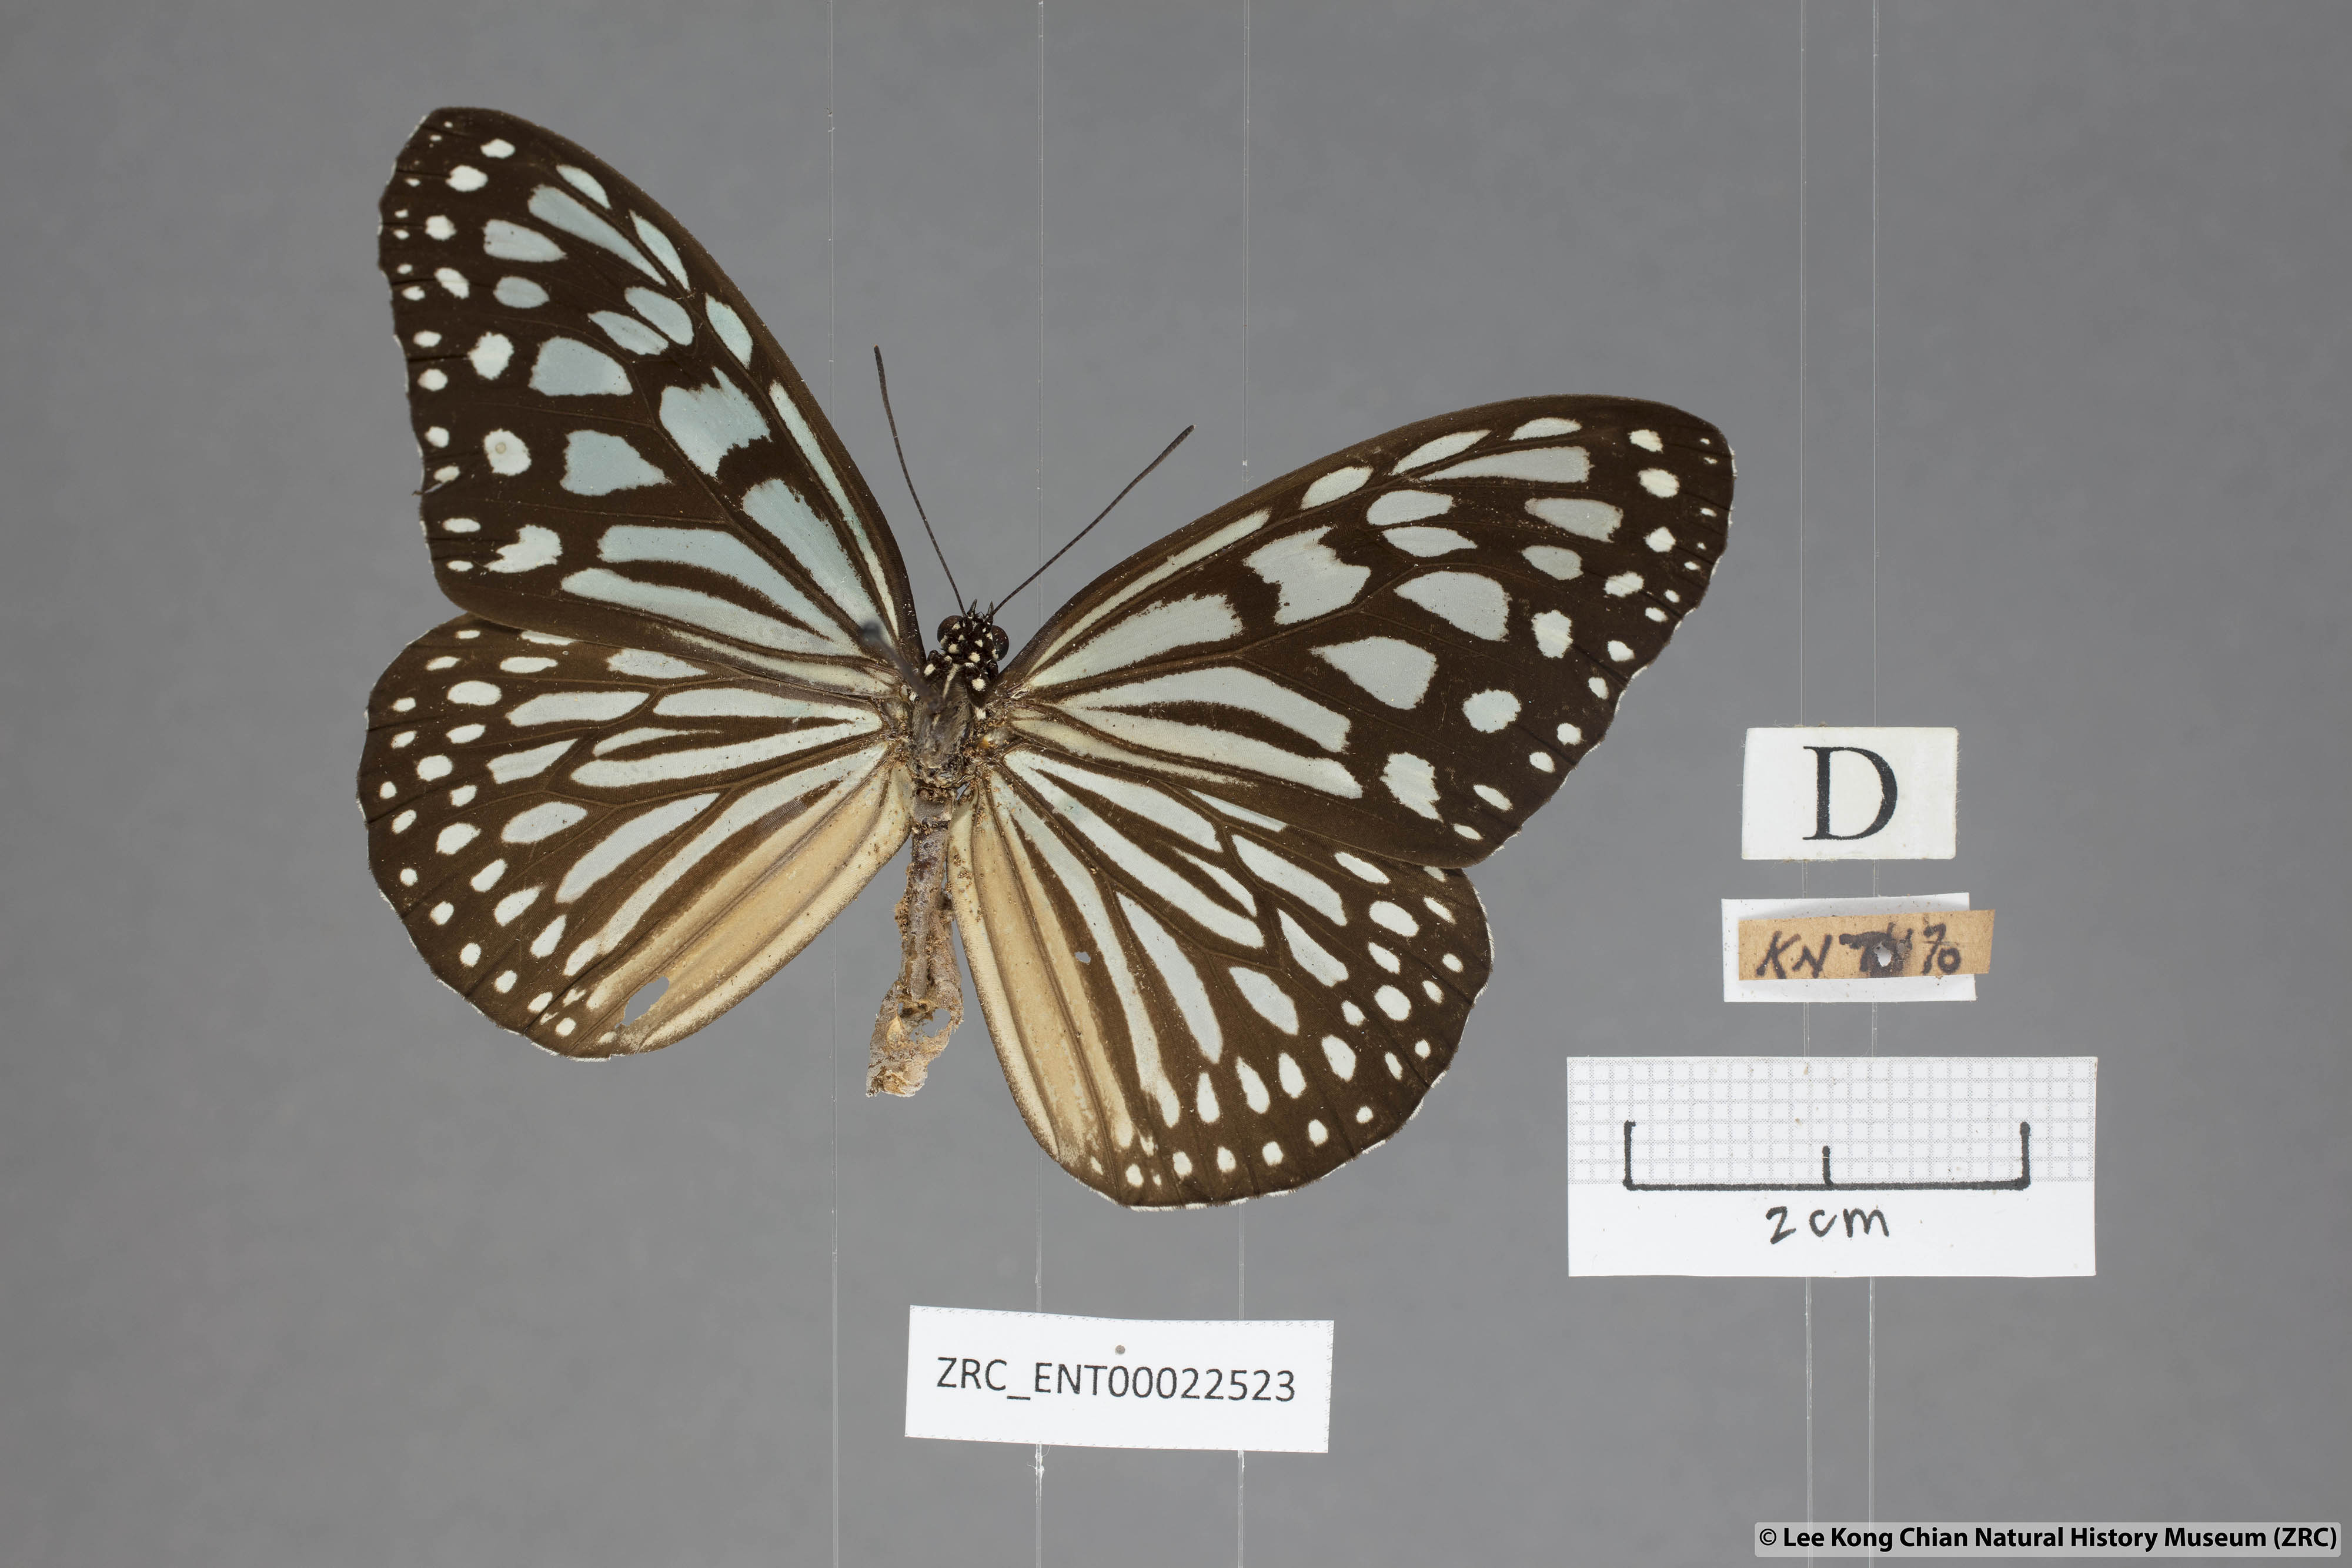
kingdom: Animalia
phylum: Arthropoda
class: Insecta
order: Lepidoptera
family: Nymphalidae
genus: Ideopsis
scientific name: Ideopsis similis
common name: Ceylon blue glassy tiger
